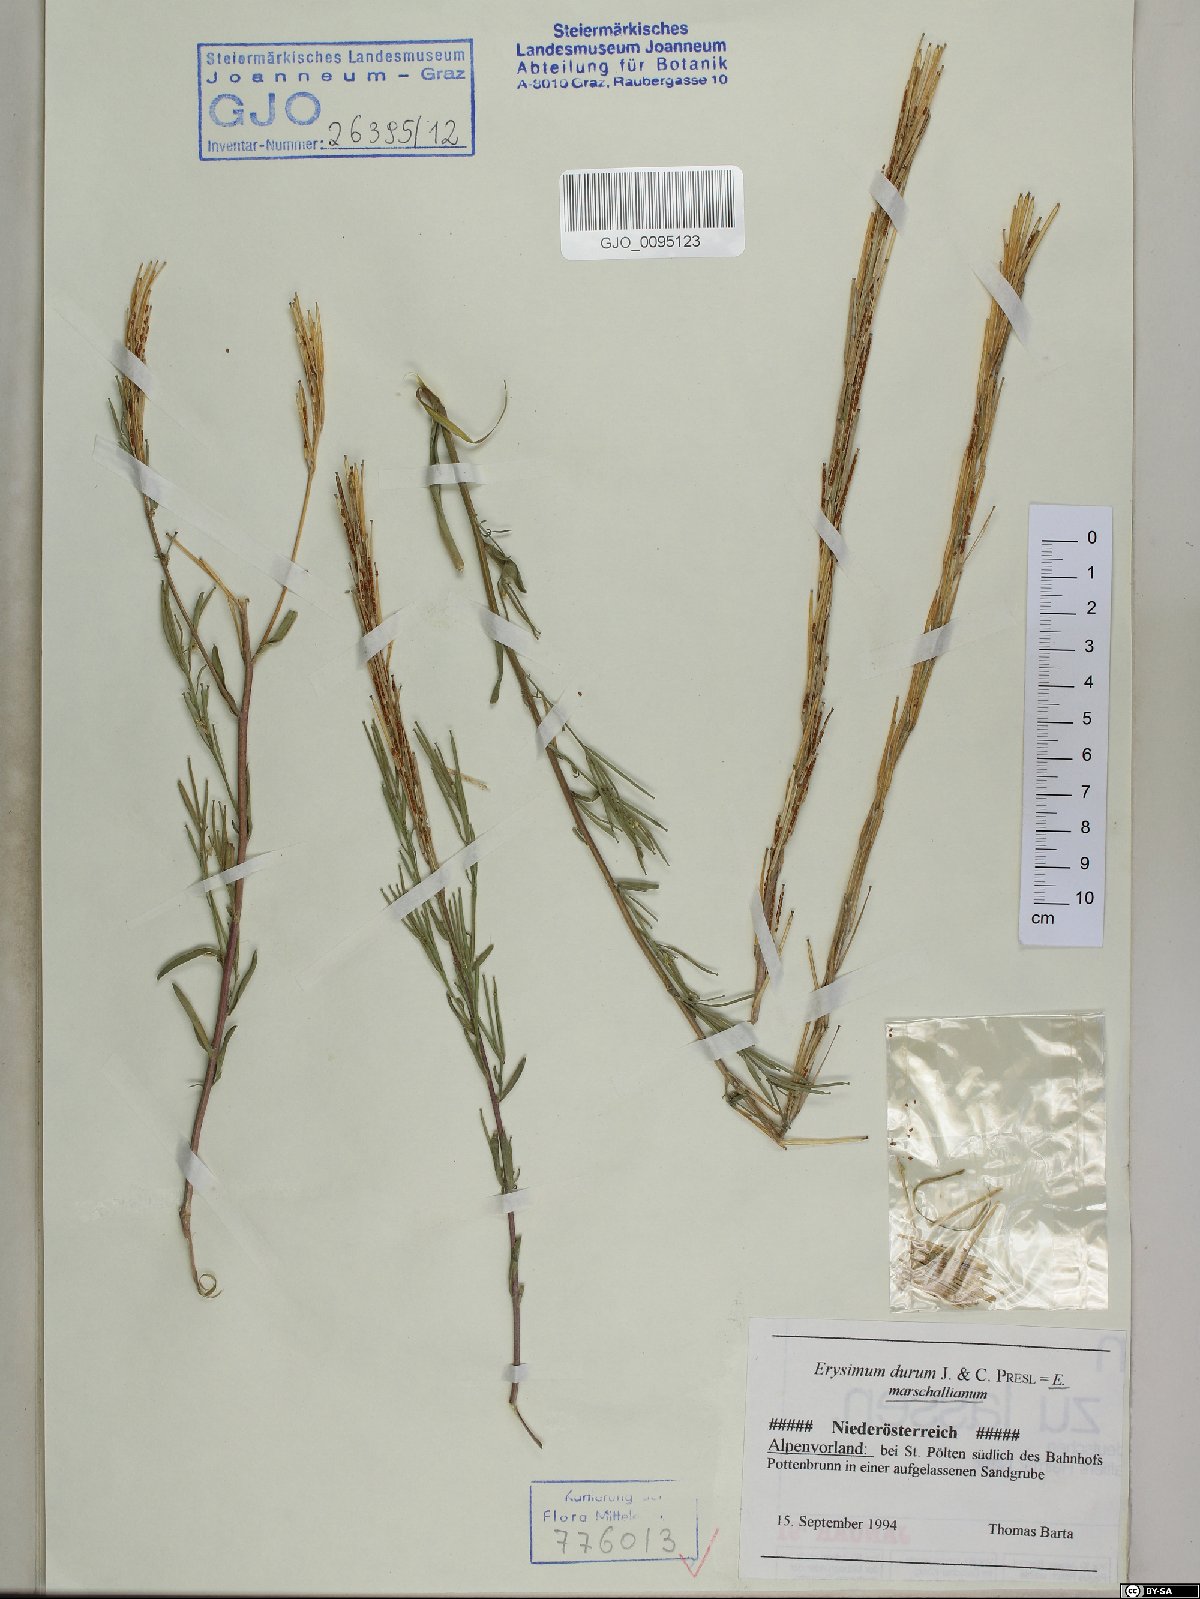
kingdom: Plantae
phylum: Tracheophyta
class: Magnoliopsida
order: Brassicales
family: Brassicaceae
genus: Erysimum
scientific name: Erysimum marschallianum
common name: Hard wallflower
